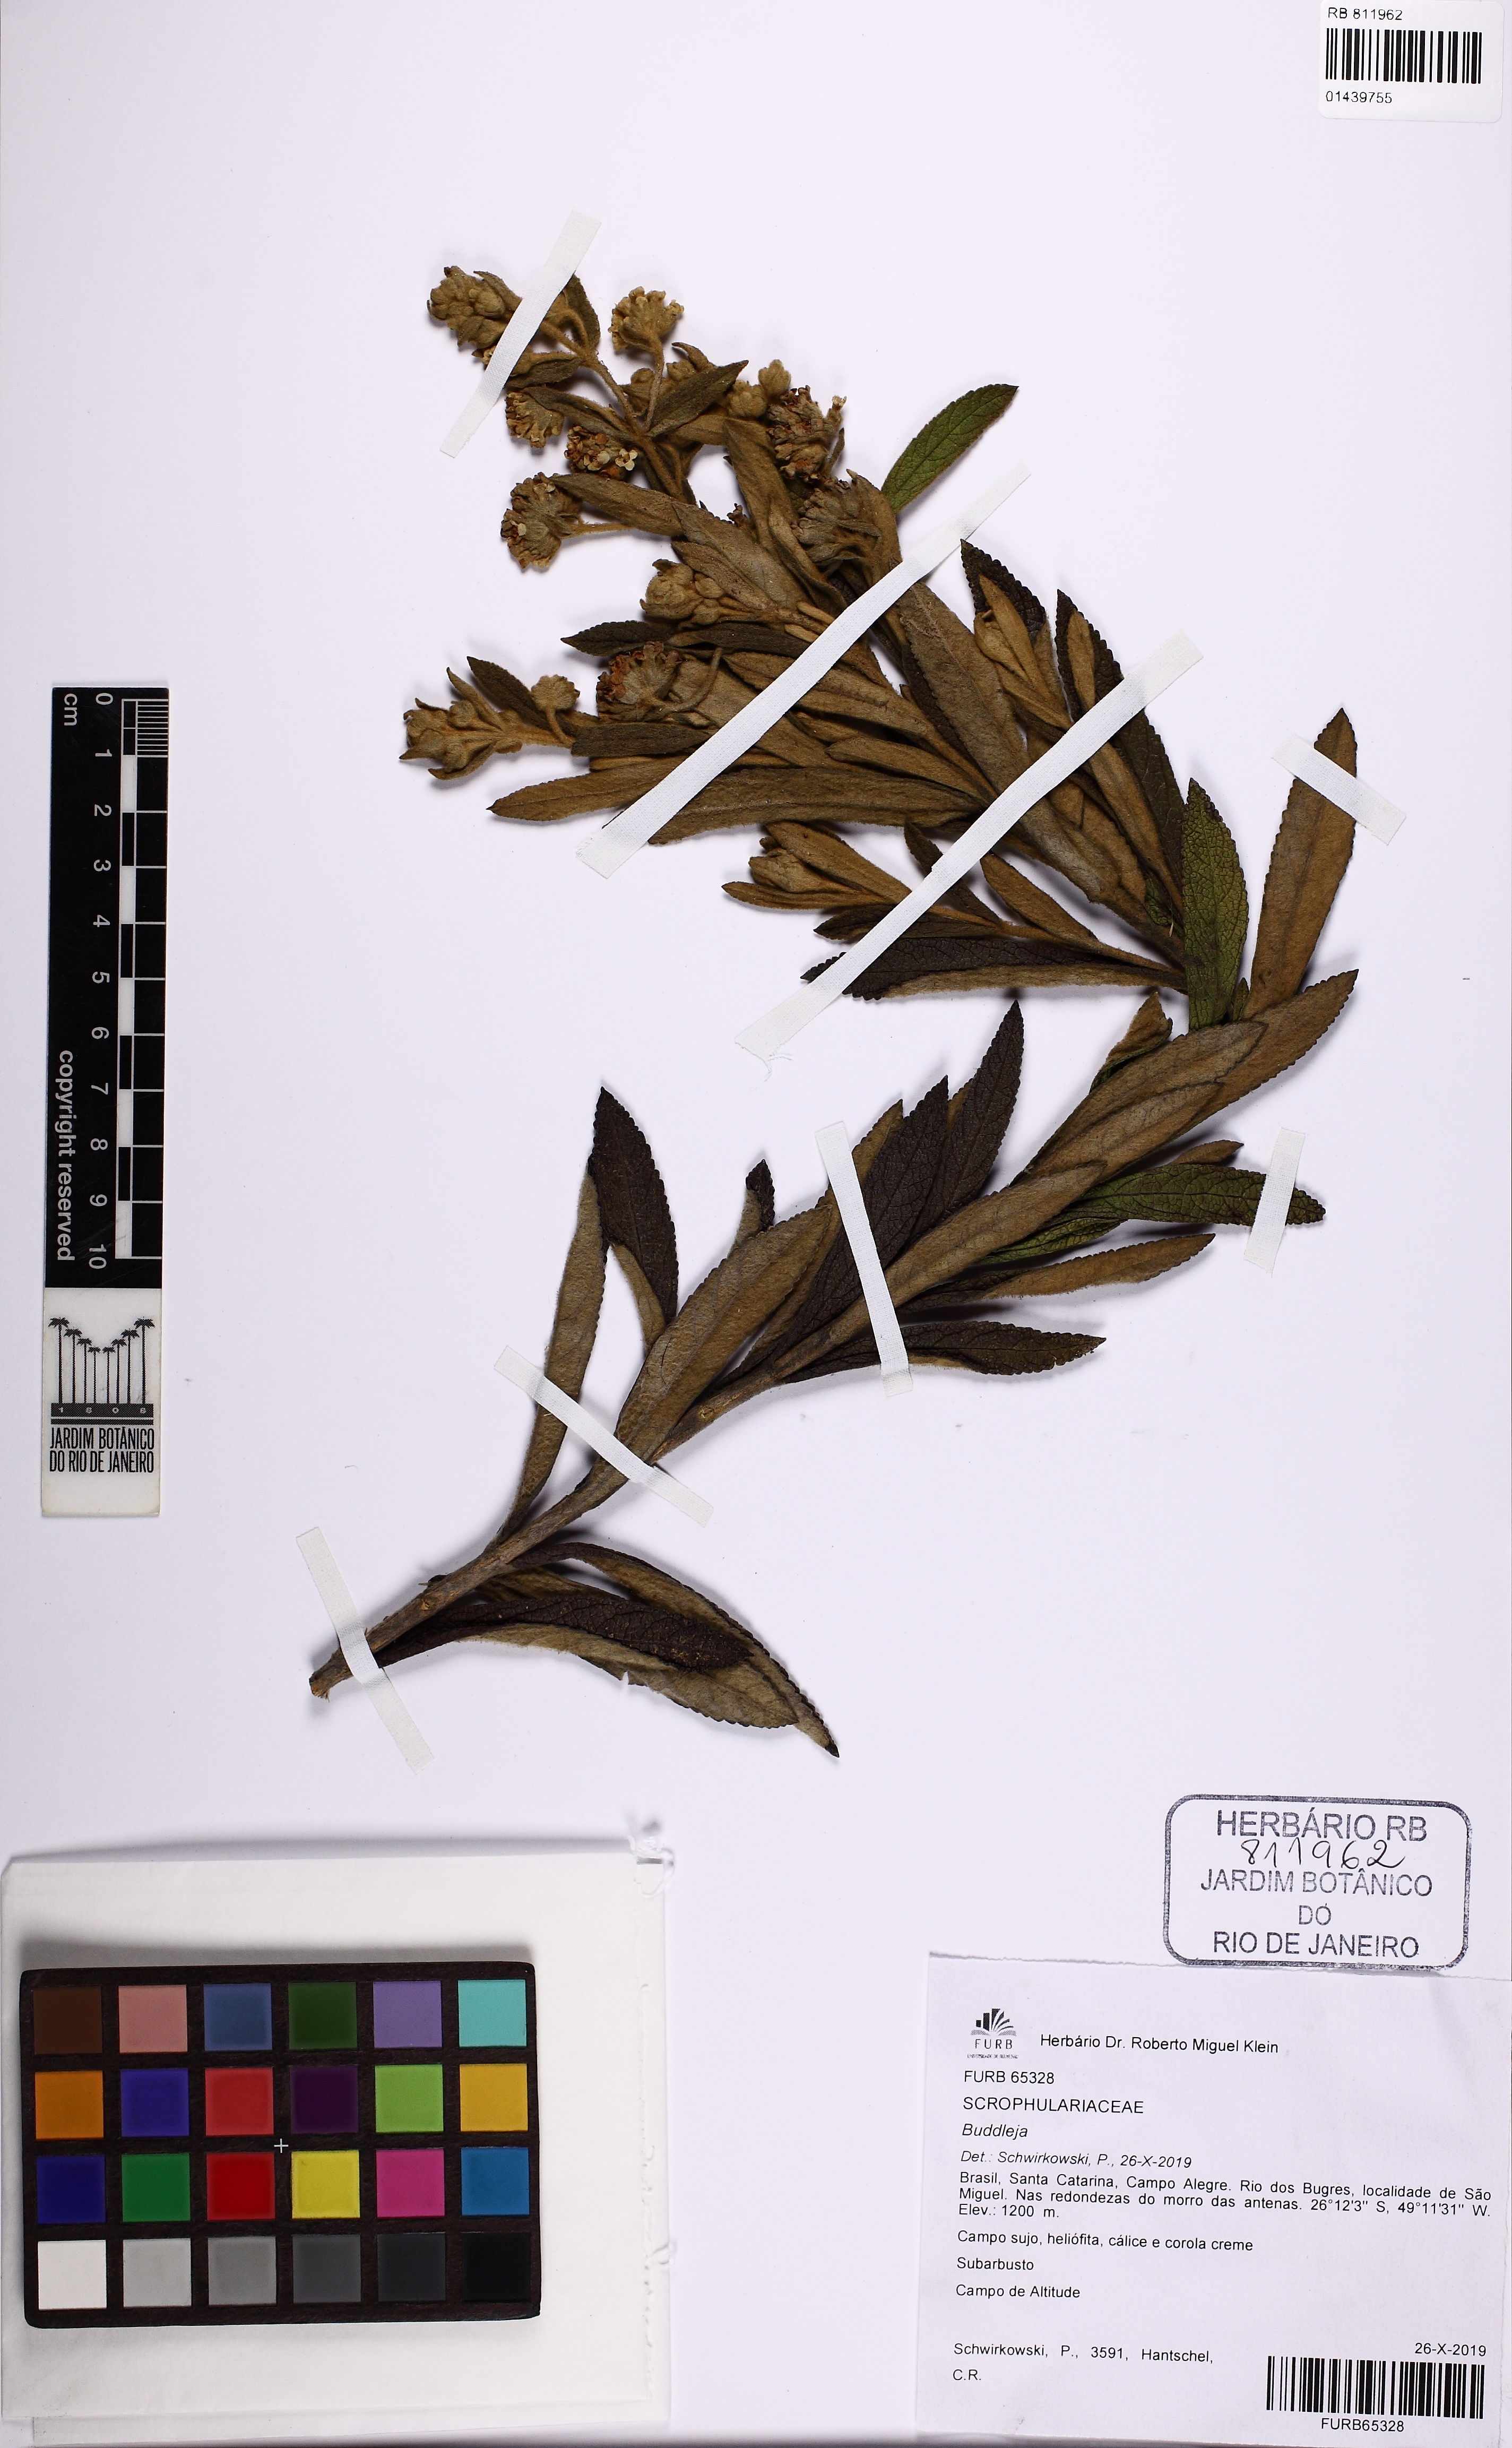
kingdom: Plantae
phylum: Tracheophyta
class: Magnoliopsida
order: Lamiales
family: Scrophulariaceae
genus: Buddleja
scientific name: Buddleja
